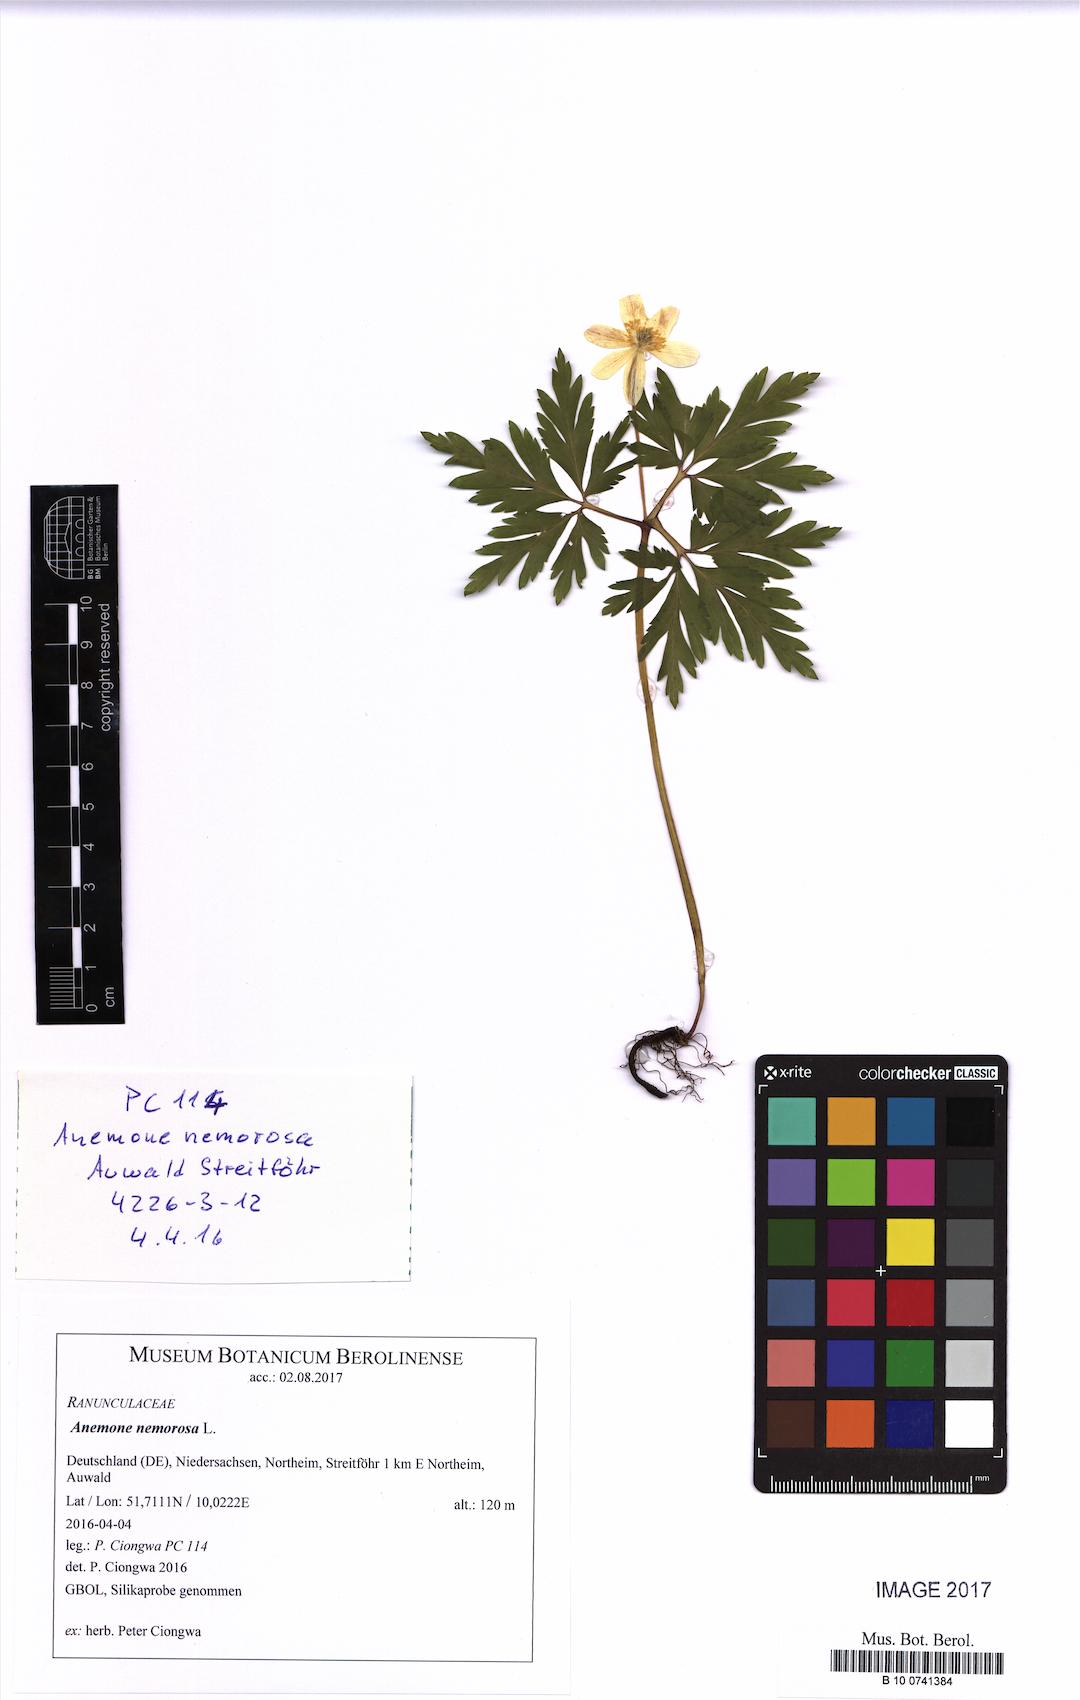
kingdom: Plantae
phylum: Tracheophyta
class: Magnoliopsida
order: Ranunculales
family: Ranunculaceae
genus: Anemone
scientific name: Anemone nemorosa
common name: Wood anemone
